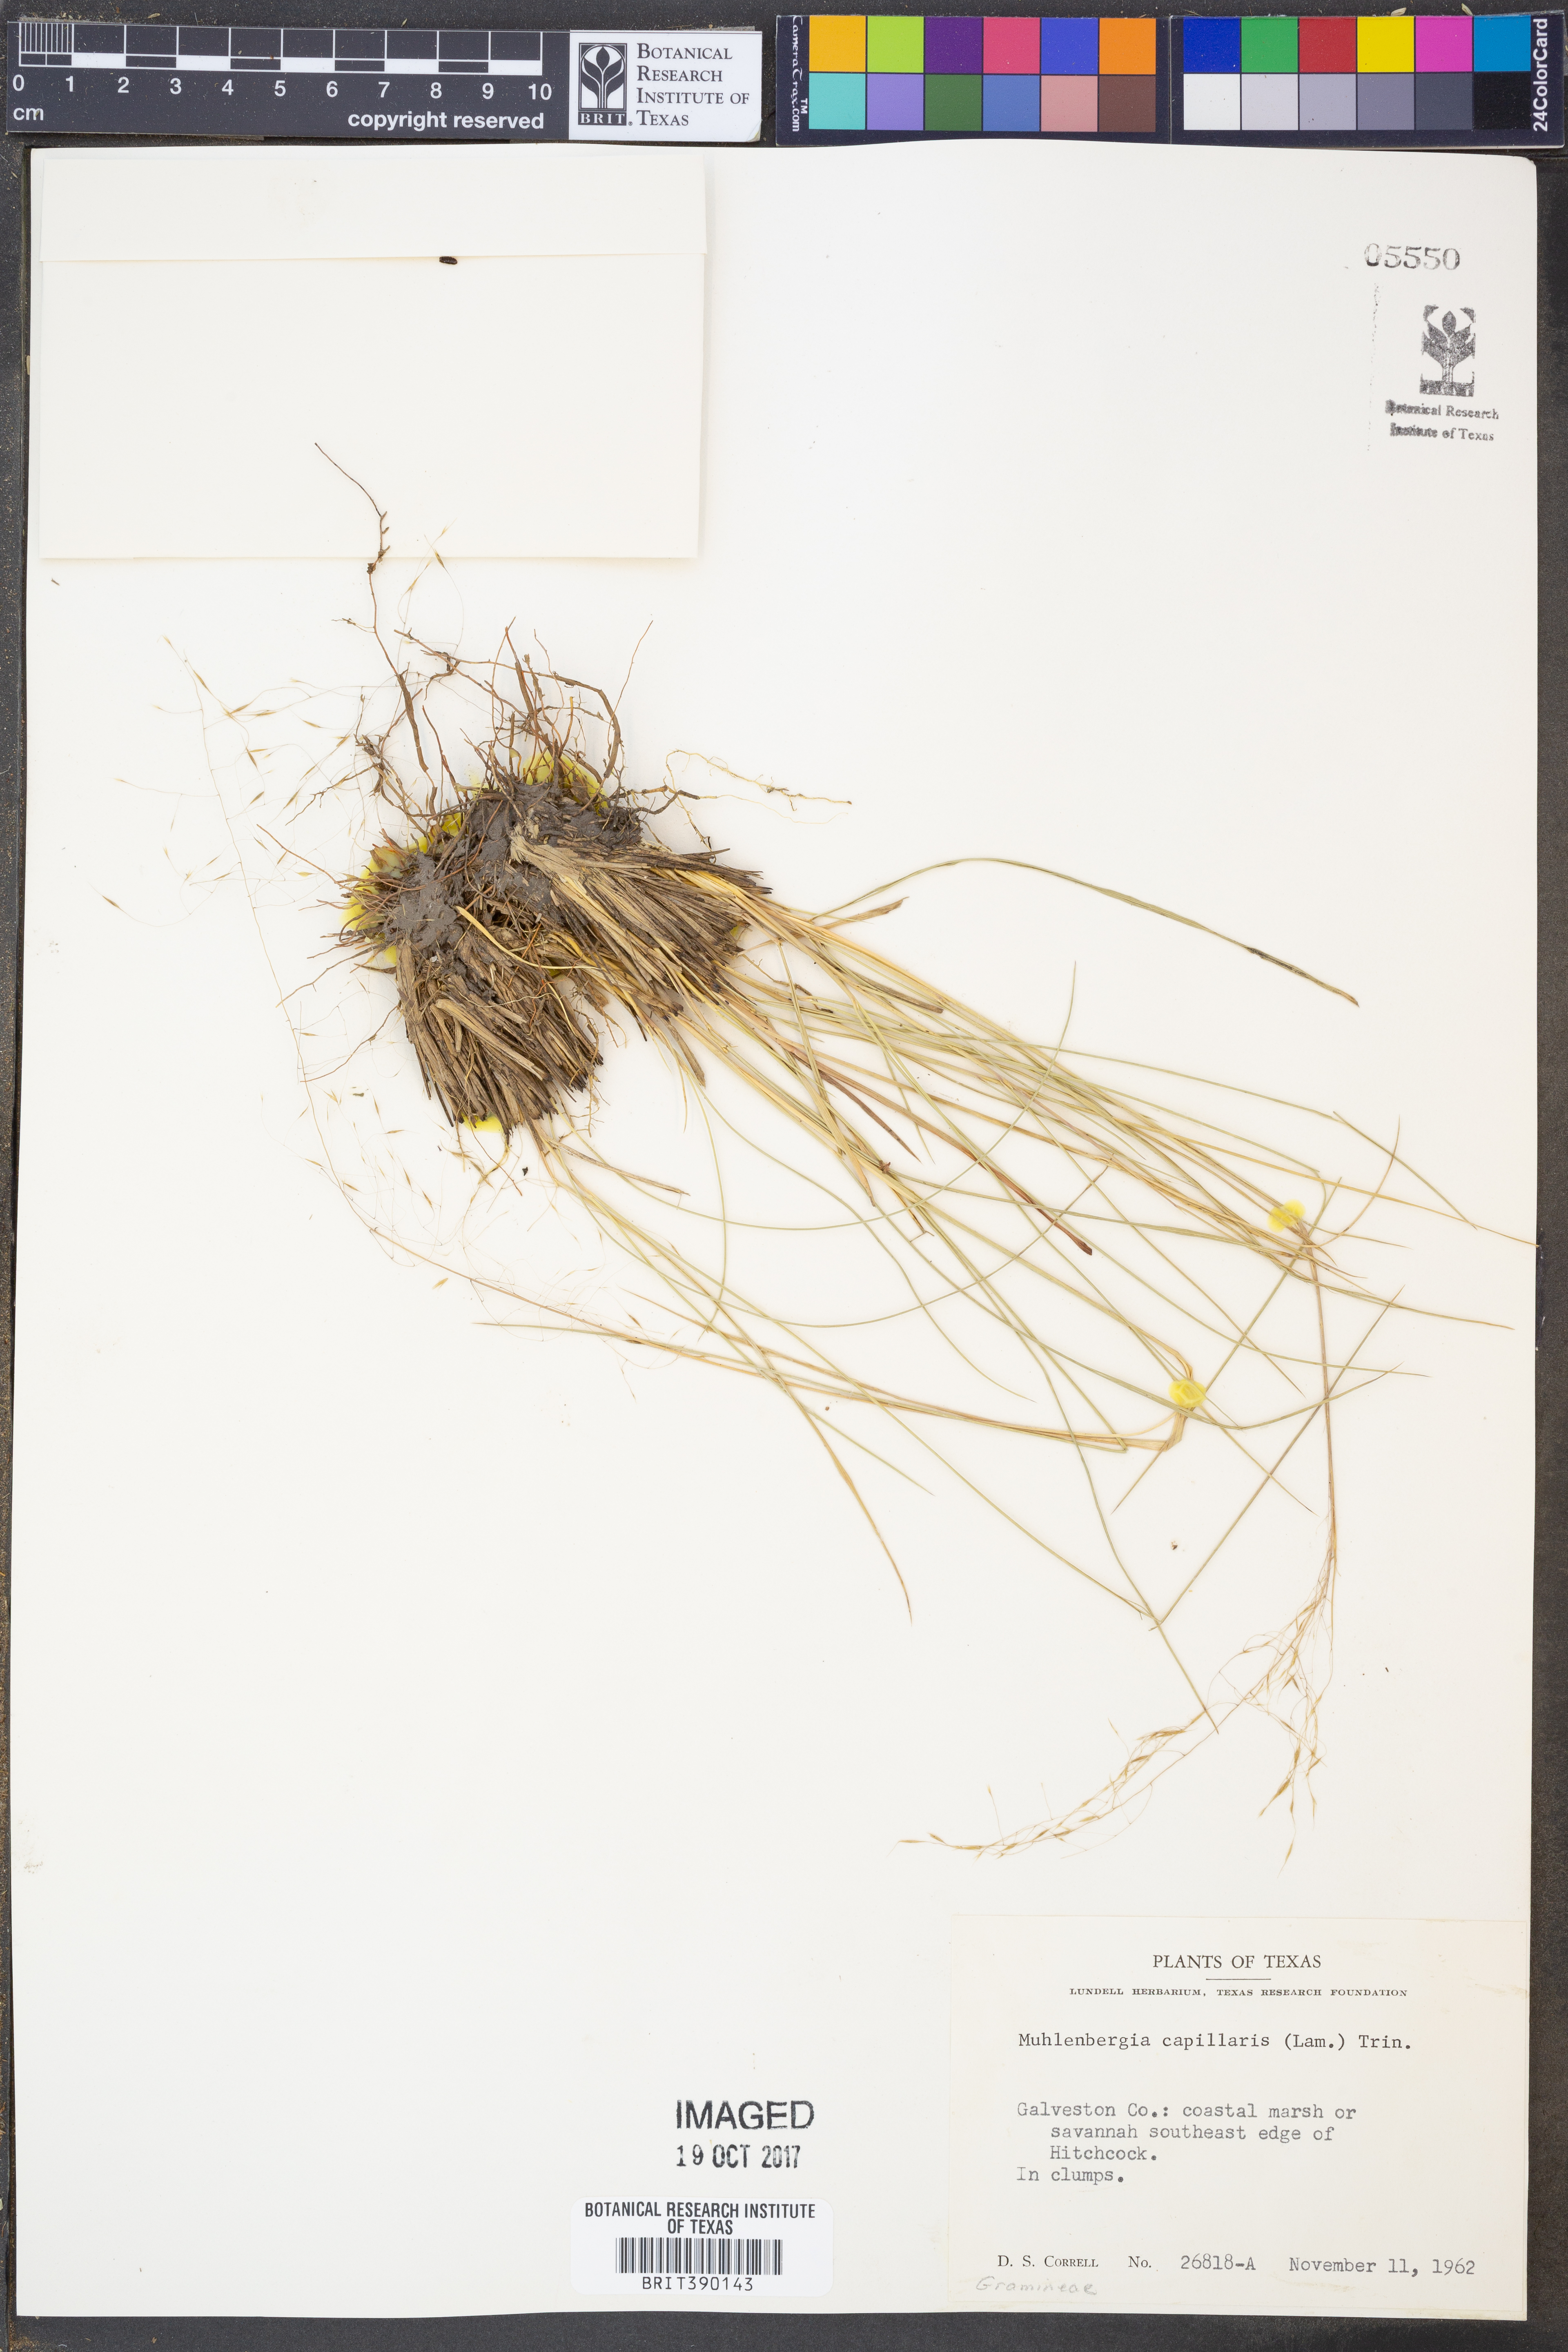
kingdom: Plantae
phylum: Tracheophyta
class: Liliopsida
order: Poales
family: Poaceae
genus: Muhlenbergia
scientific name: Muhlenbergia capillaris
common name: Purple grass
